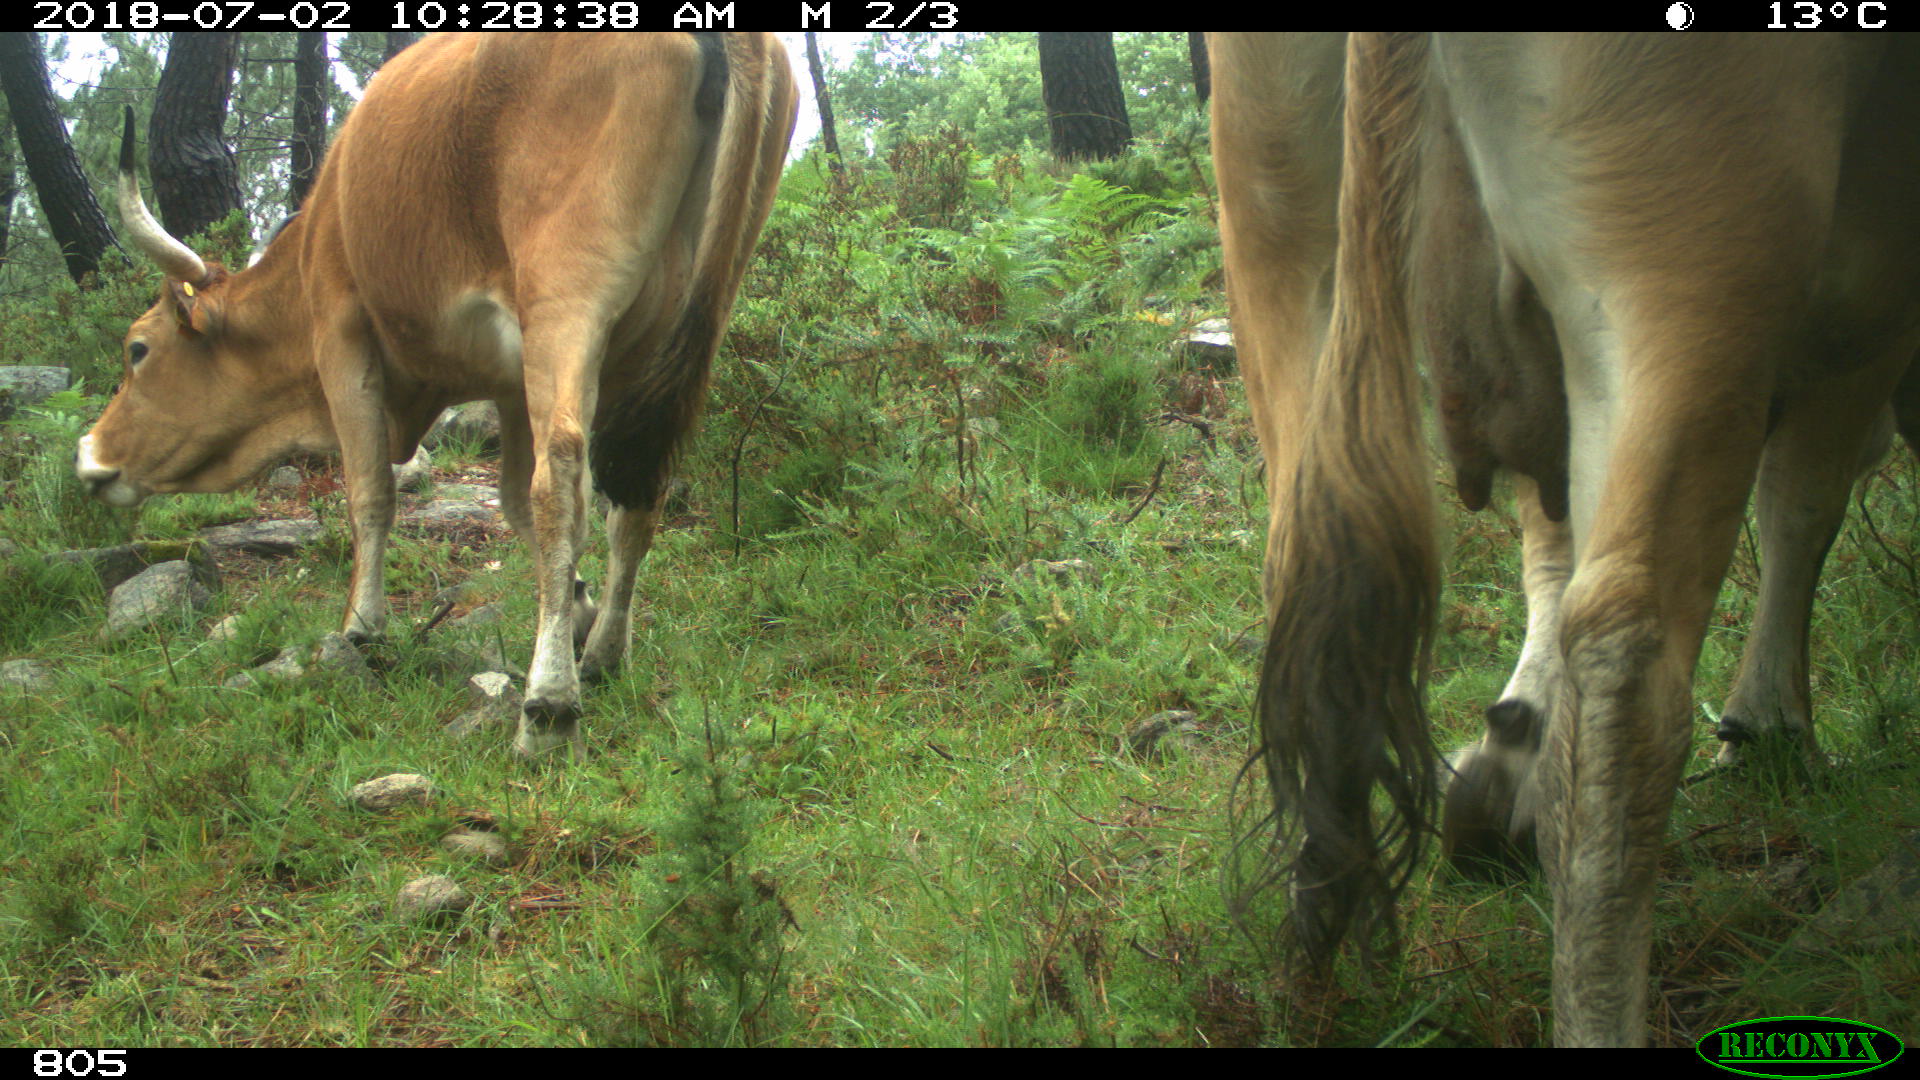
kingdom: Animalia
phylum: Chordata
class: Mammalia
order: Artiodactyla
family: Bovidae
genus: Bos
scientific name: Bos taurus
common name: Domesticated cattle
